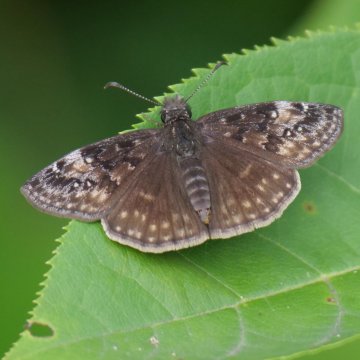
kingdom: Animalia
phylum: Arthropoda
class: Insecta
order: Lepidoptera
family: Hesperiidae
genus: Gesta
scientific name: Gesta
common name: Wild Indigo Duskywing
